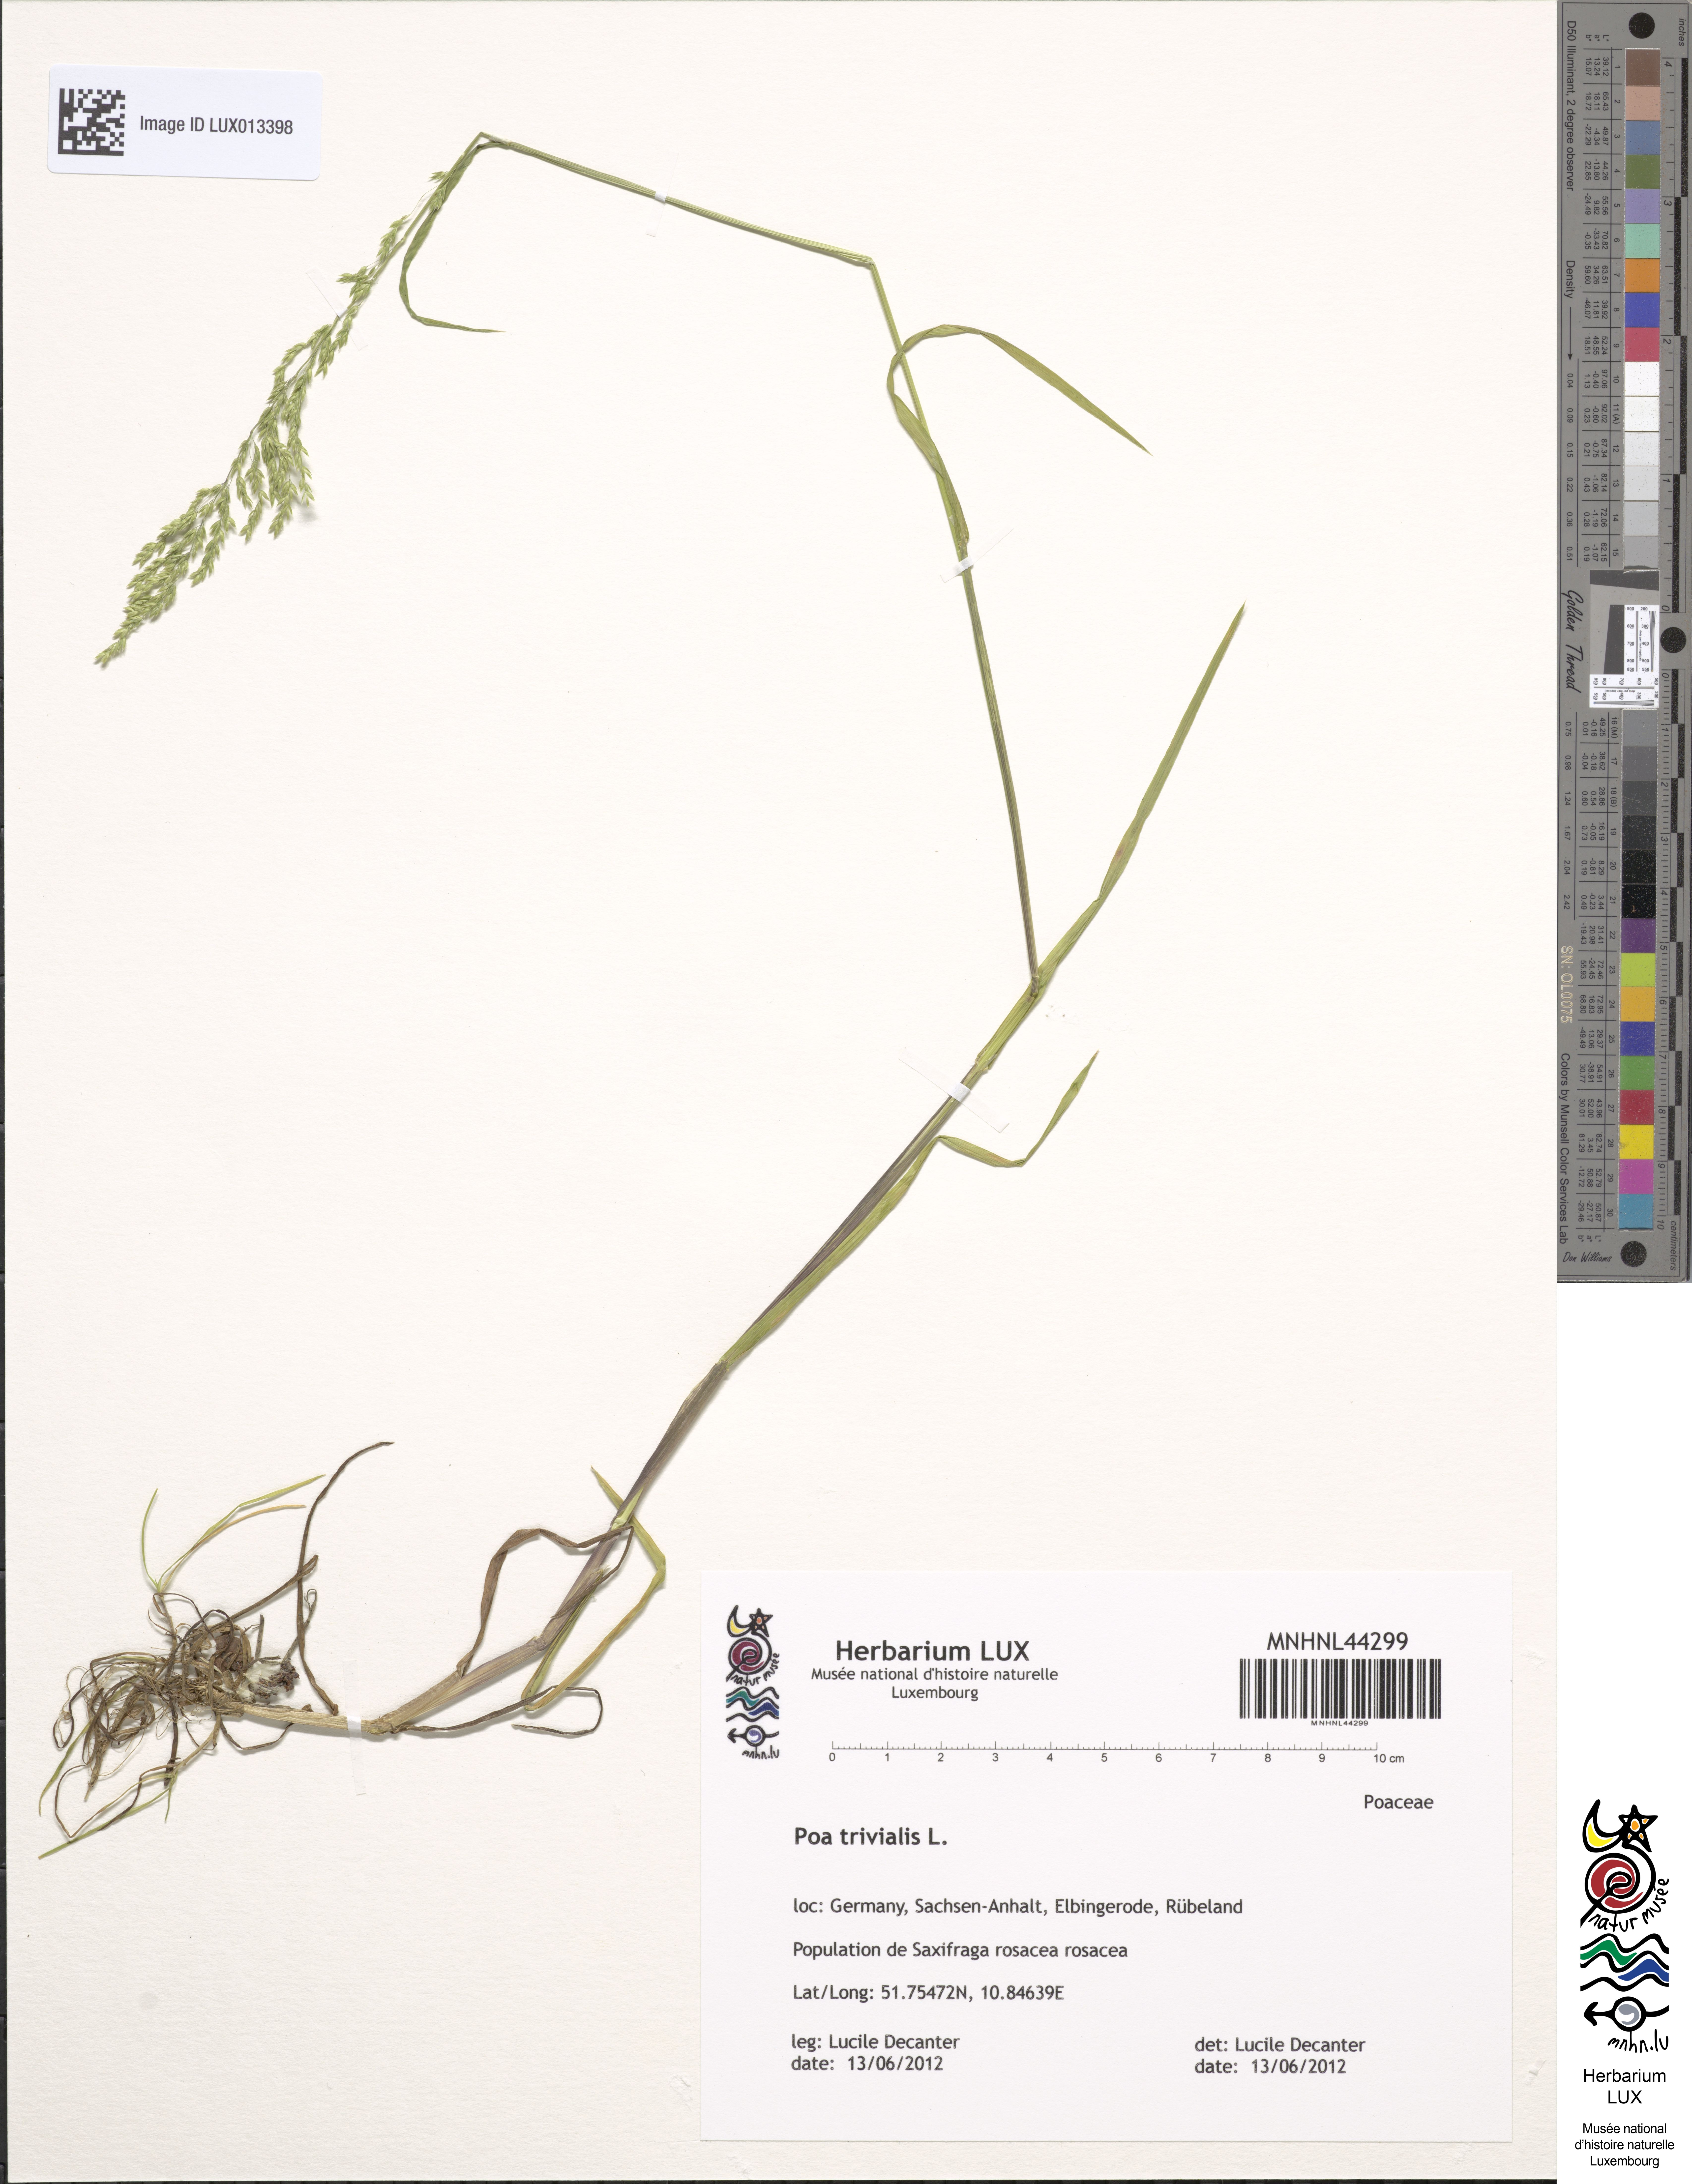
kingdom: Plantae
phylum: Tracheophyta
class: Liliopsida
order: Poales
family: Poaceae
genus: Poa
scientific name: Poa trivialis
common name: Rough bluegrass
